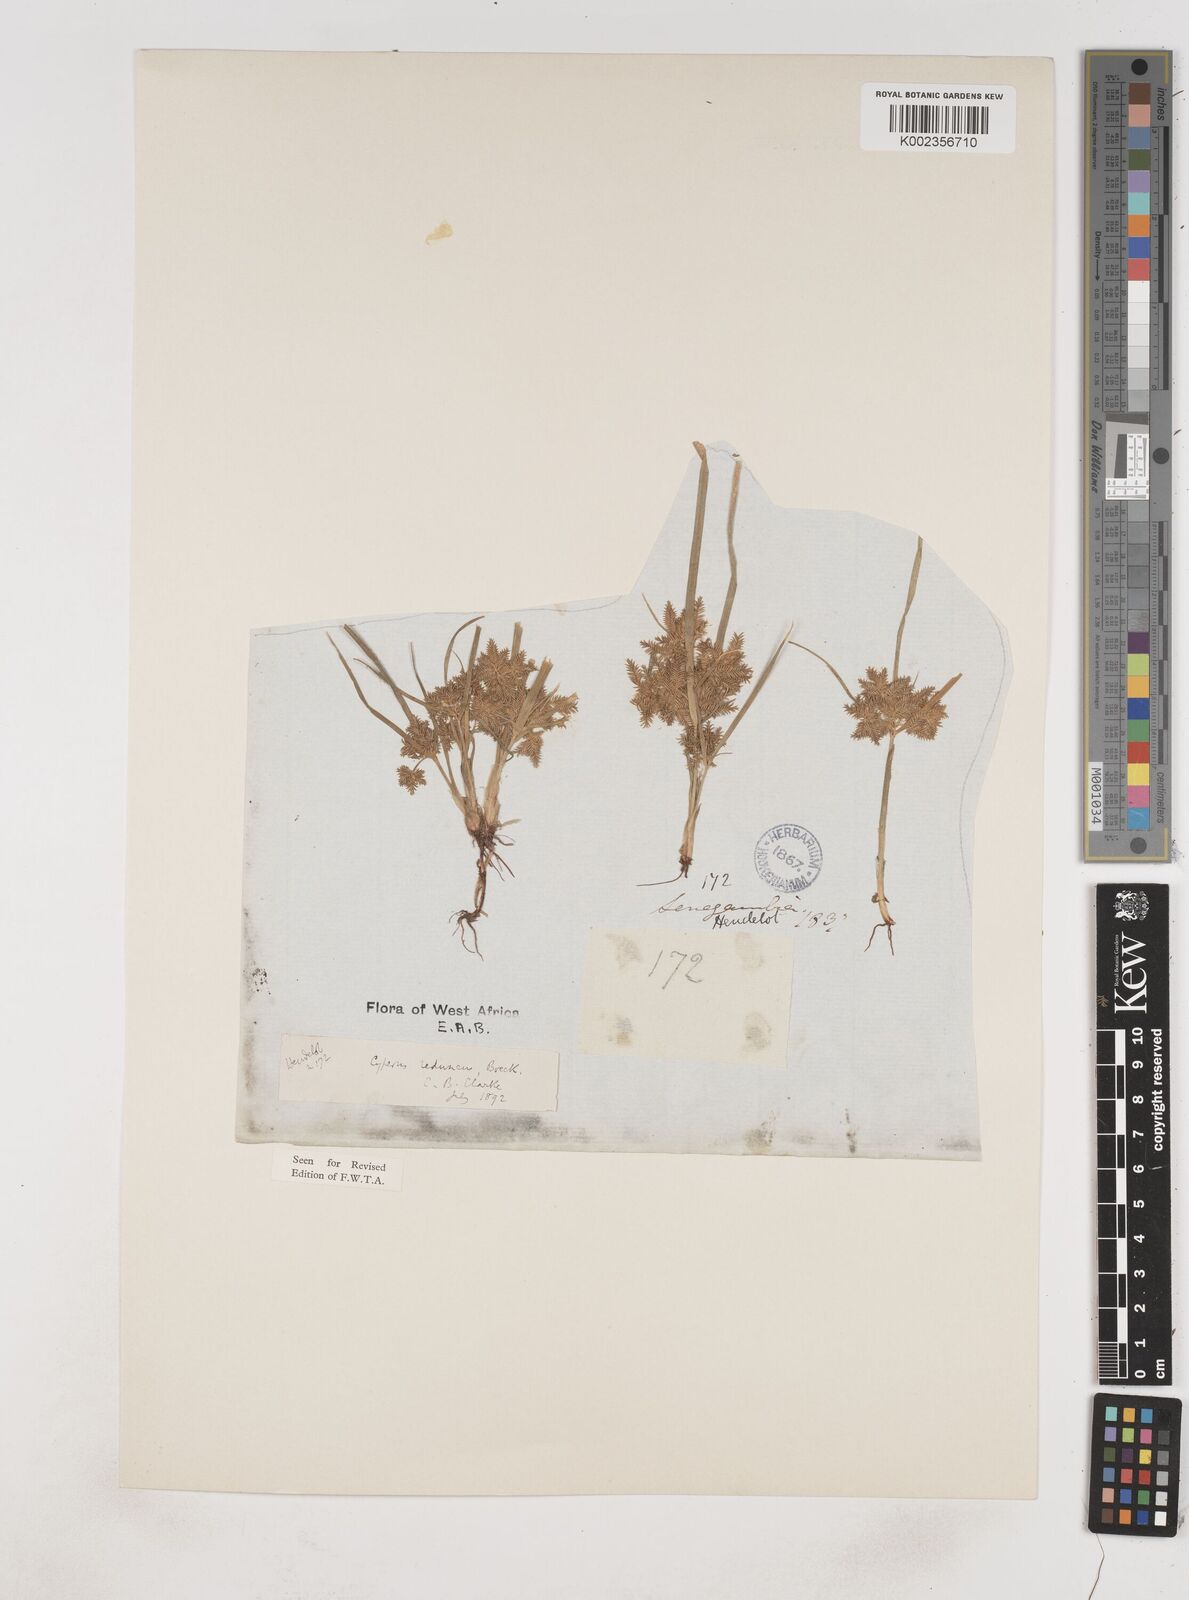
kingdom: Plantae
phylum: Tracheophyta
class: Liliopsida
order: Poales
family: Cyperaceae
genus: Cyperus
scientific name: Cyperus reduncus
